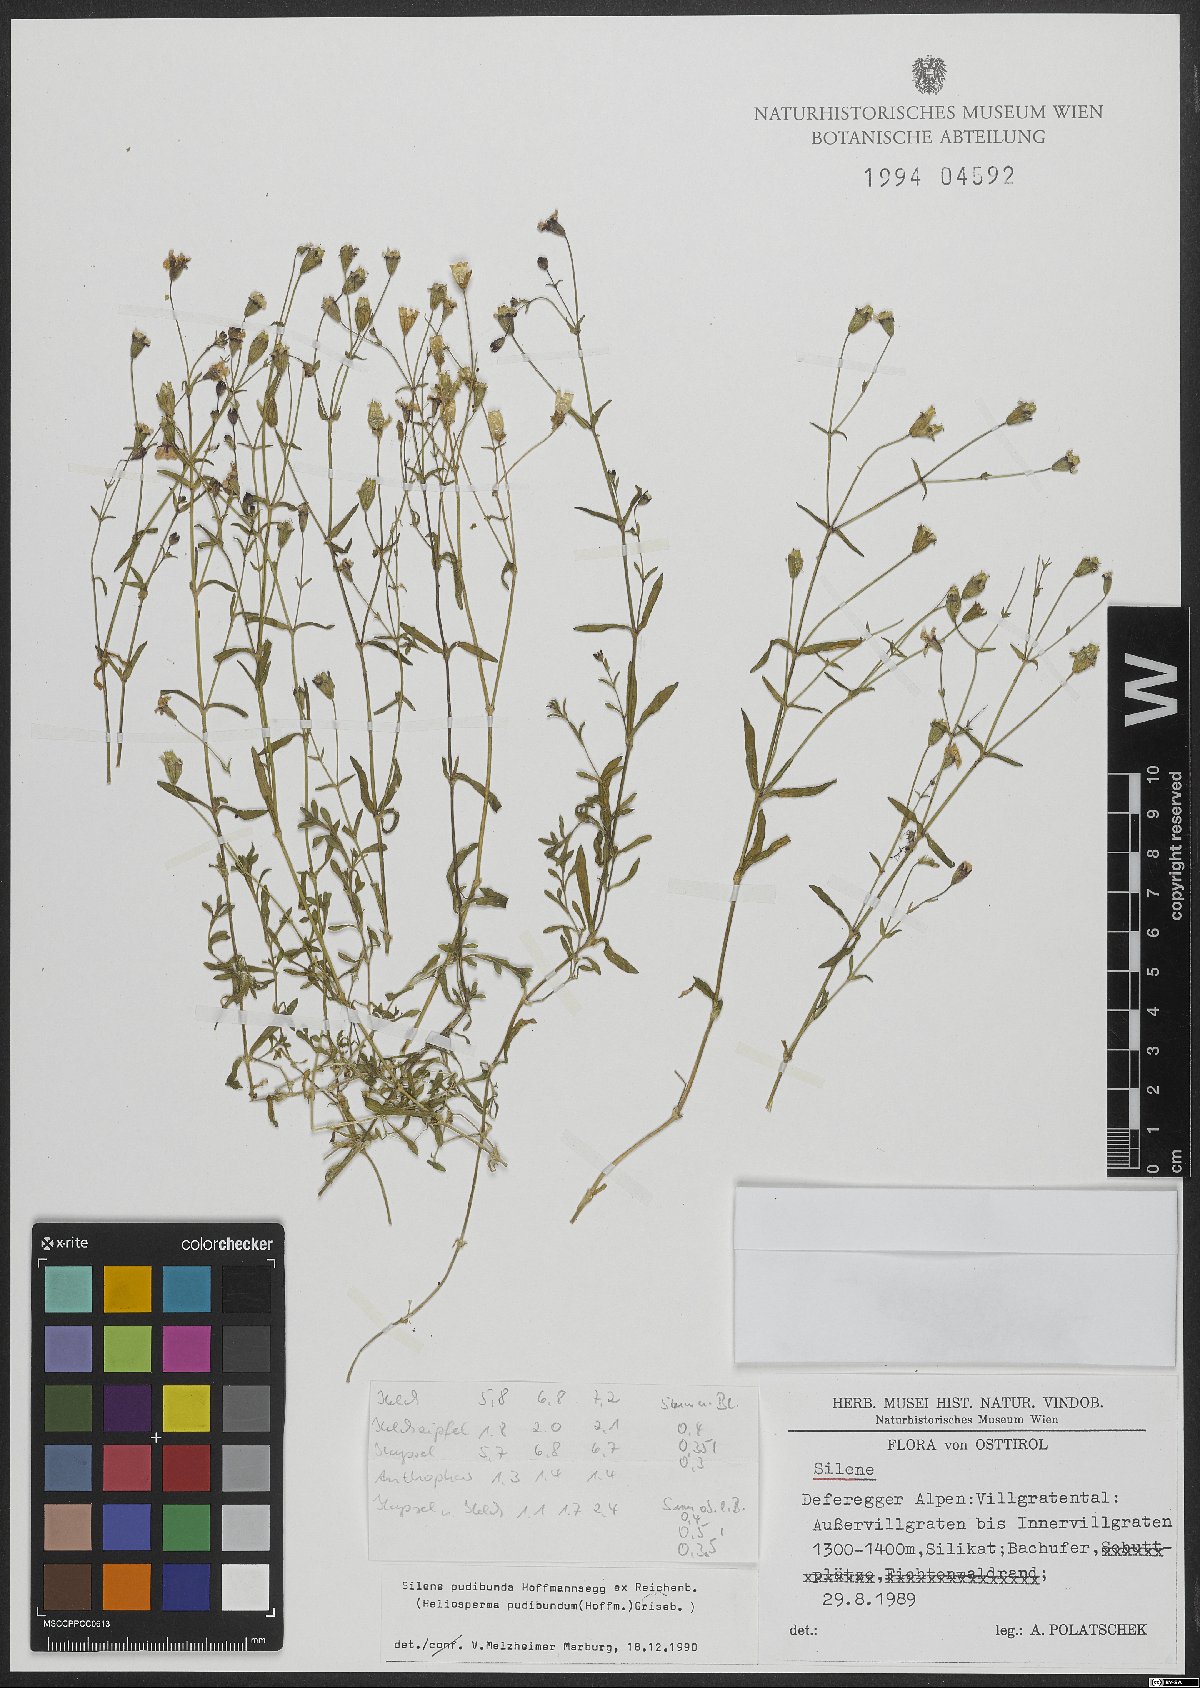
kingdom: Plantae
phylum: Tracheophyta
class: Magnoliopsida
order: Caryophyllales
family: Caryophyllaceae
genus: Heliosperma
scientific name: Heliosperma pudibundum
